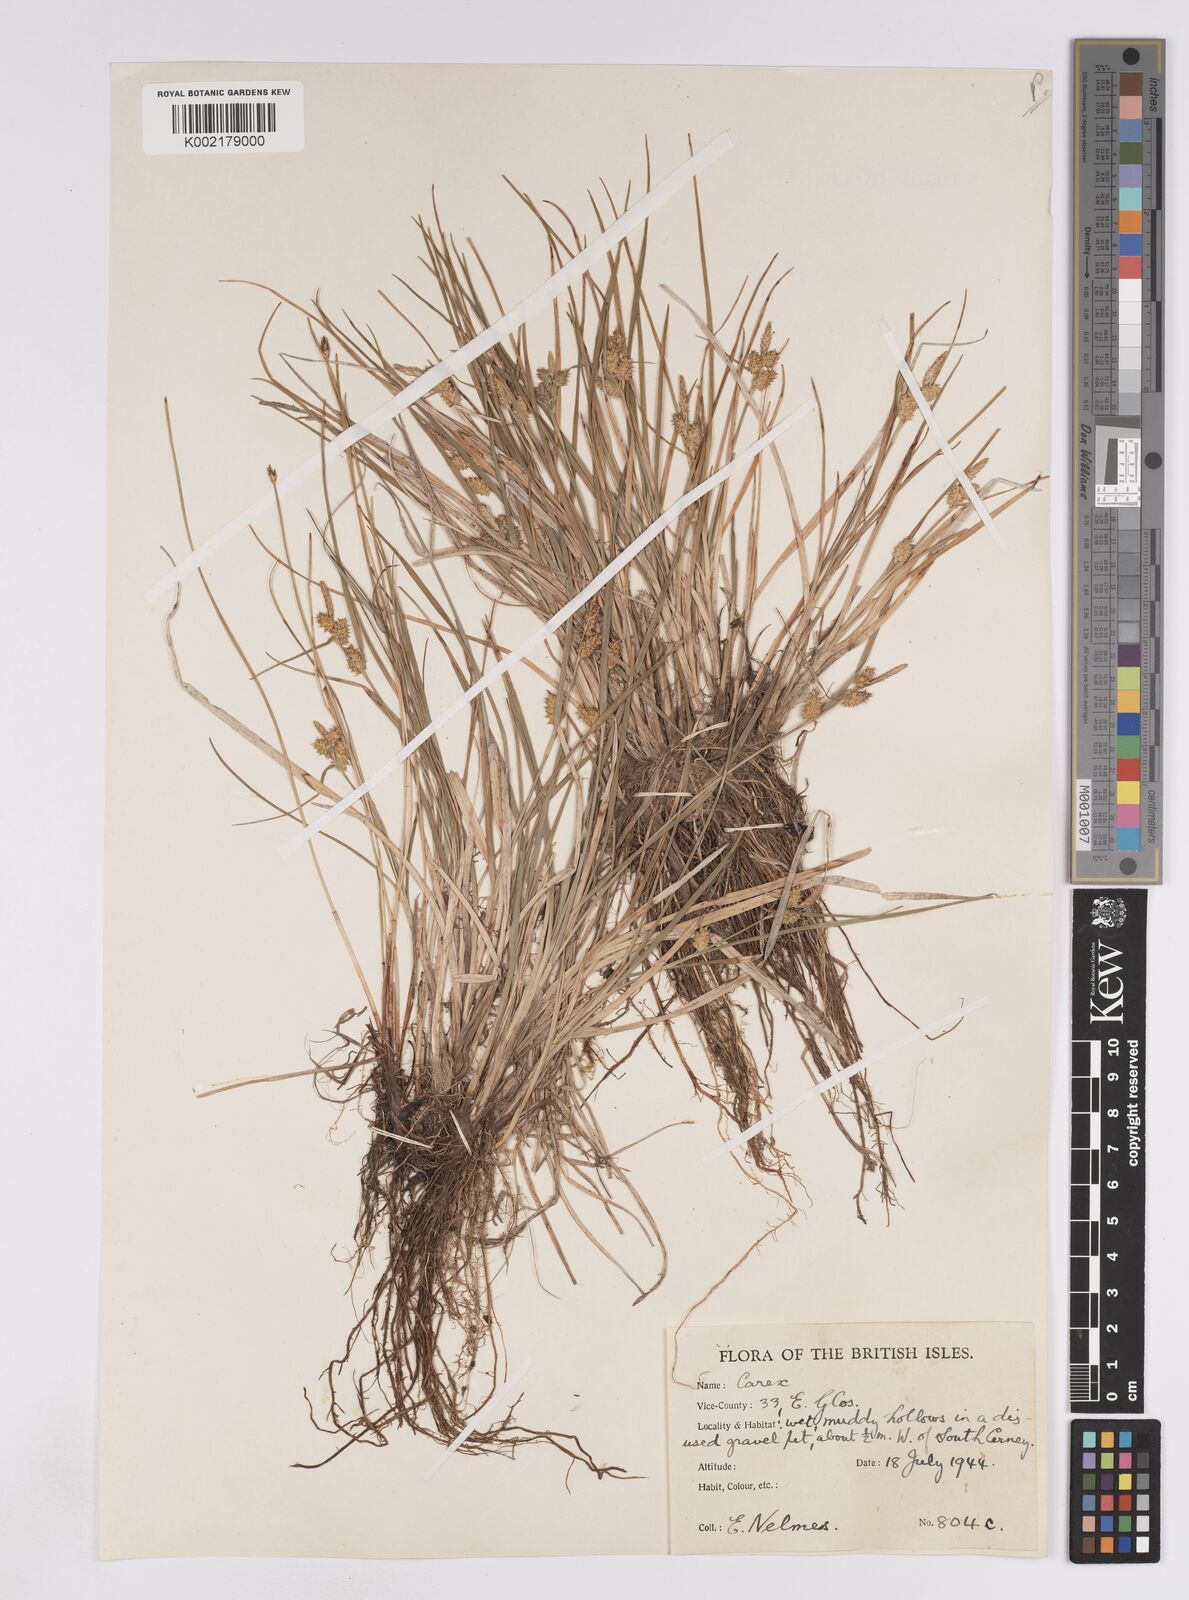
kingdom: Plantae
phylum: Tracheophyta
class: Liliopsida
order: Poales
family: Cyperaceae
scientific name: Cyperaceae
